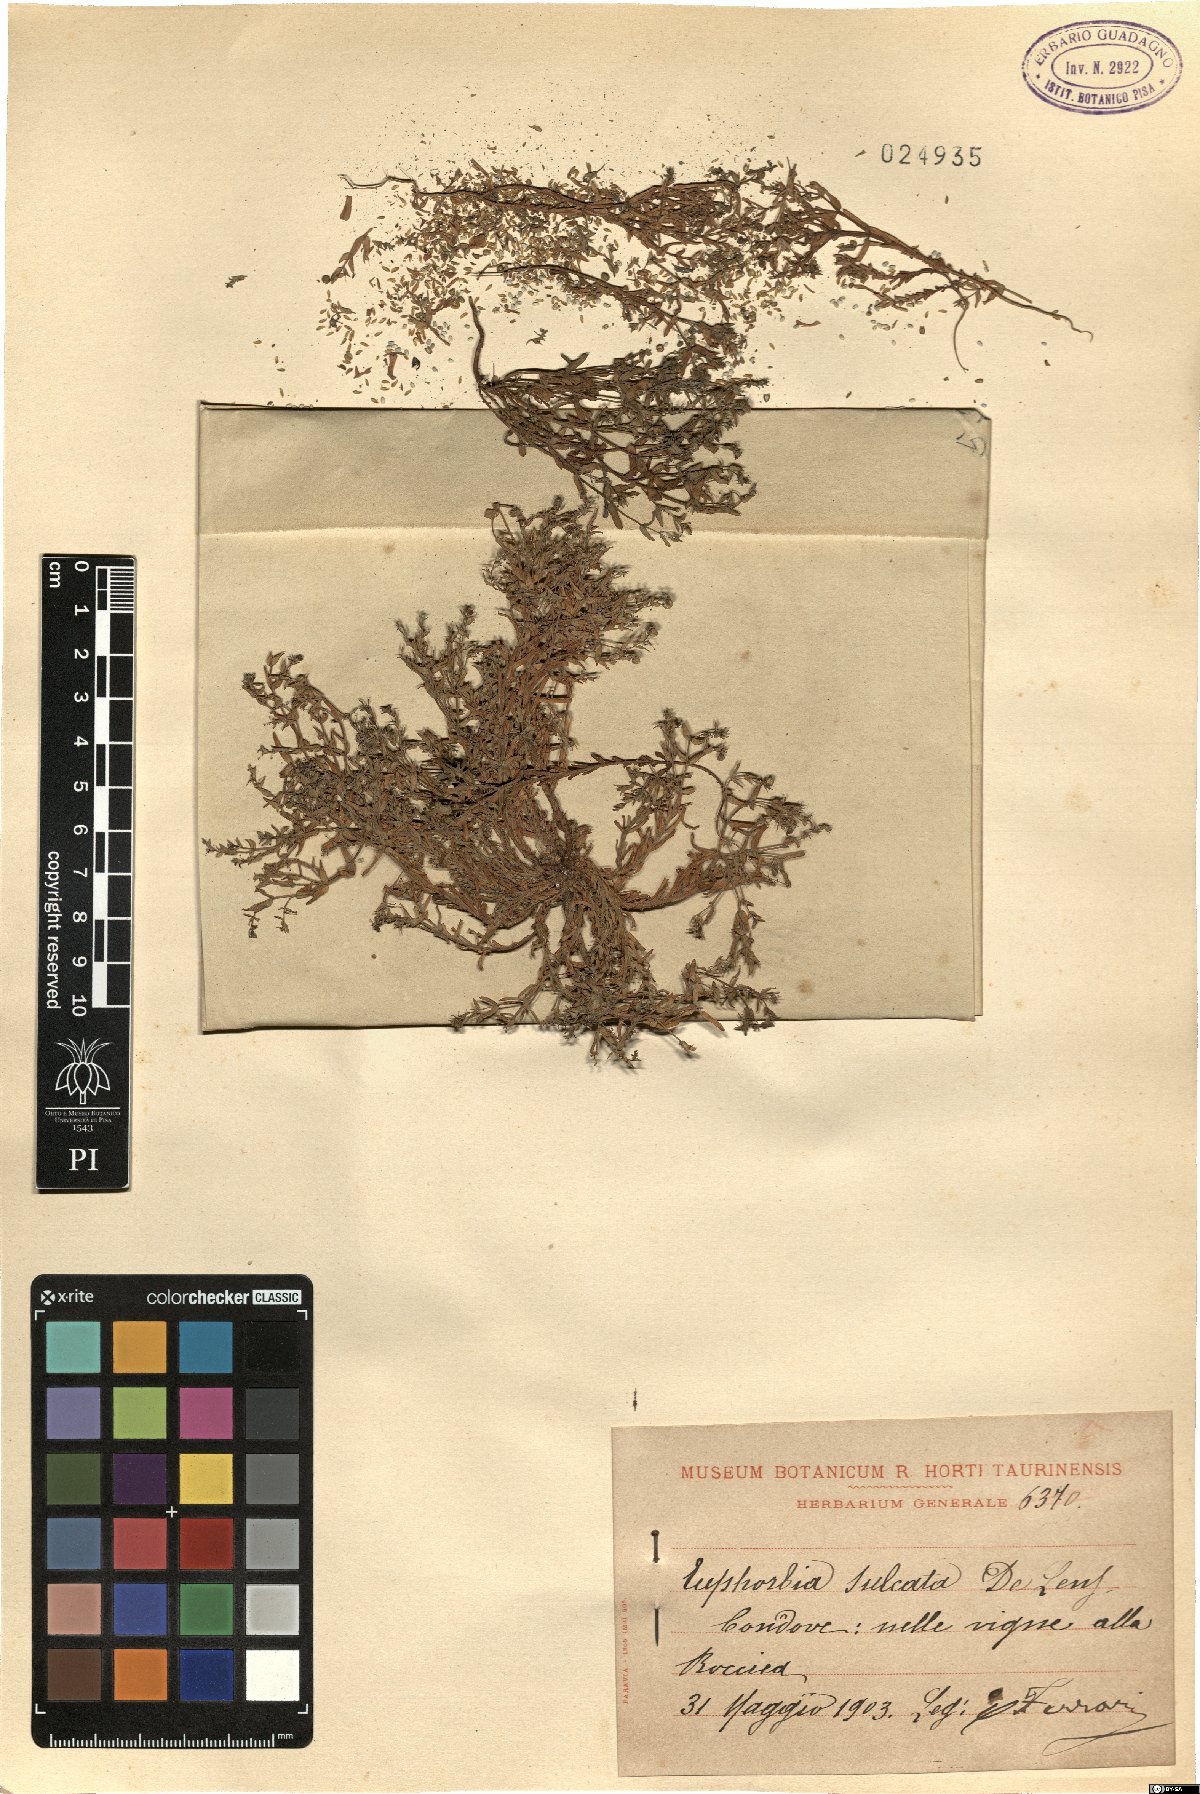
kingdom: Plantae
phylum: Tracheophyta
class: Magnoliopsida
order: Malpighiales
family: Euphorbiaceae
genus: Euphorbia
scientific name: Euphorbia sulcata
